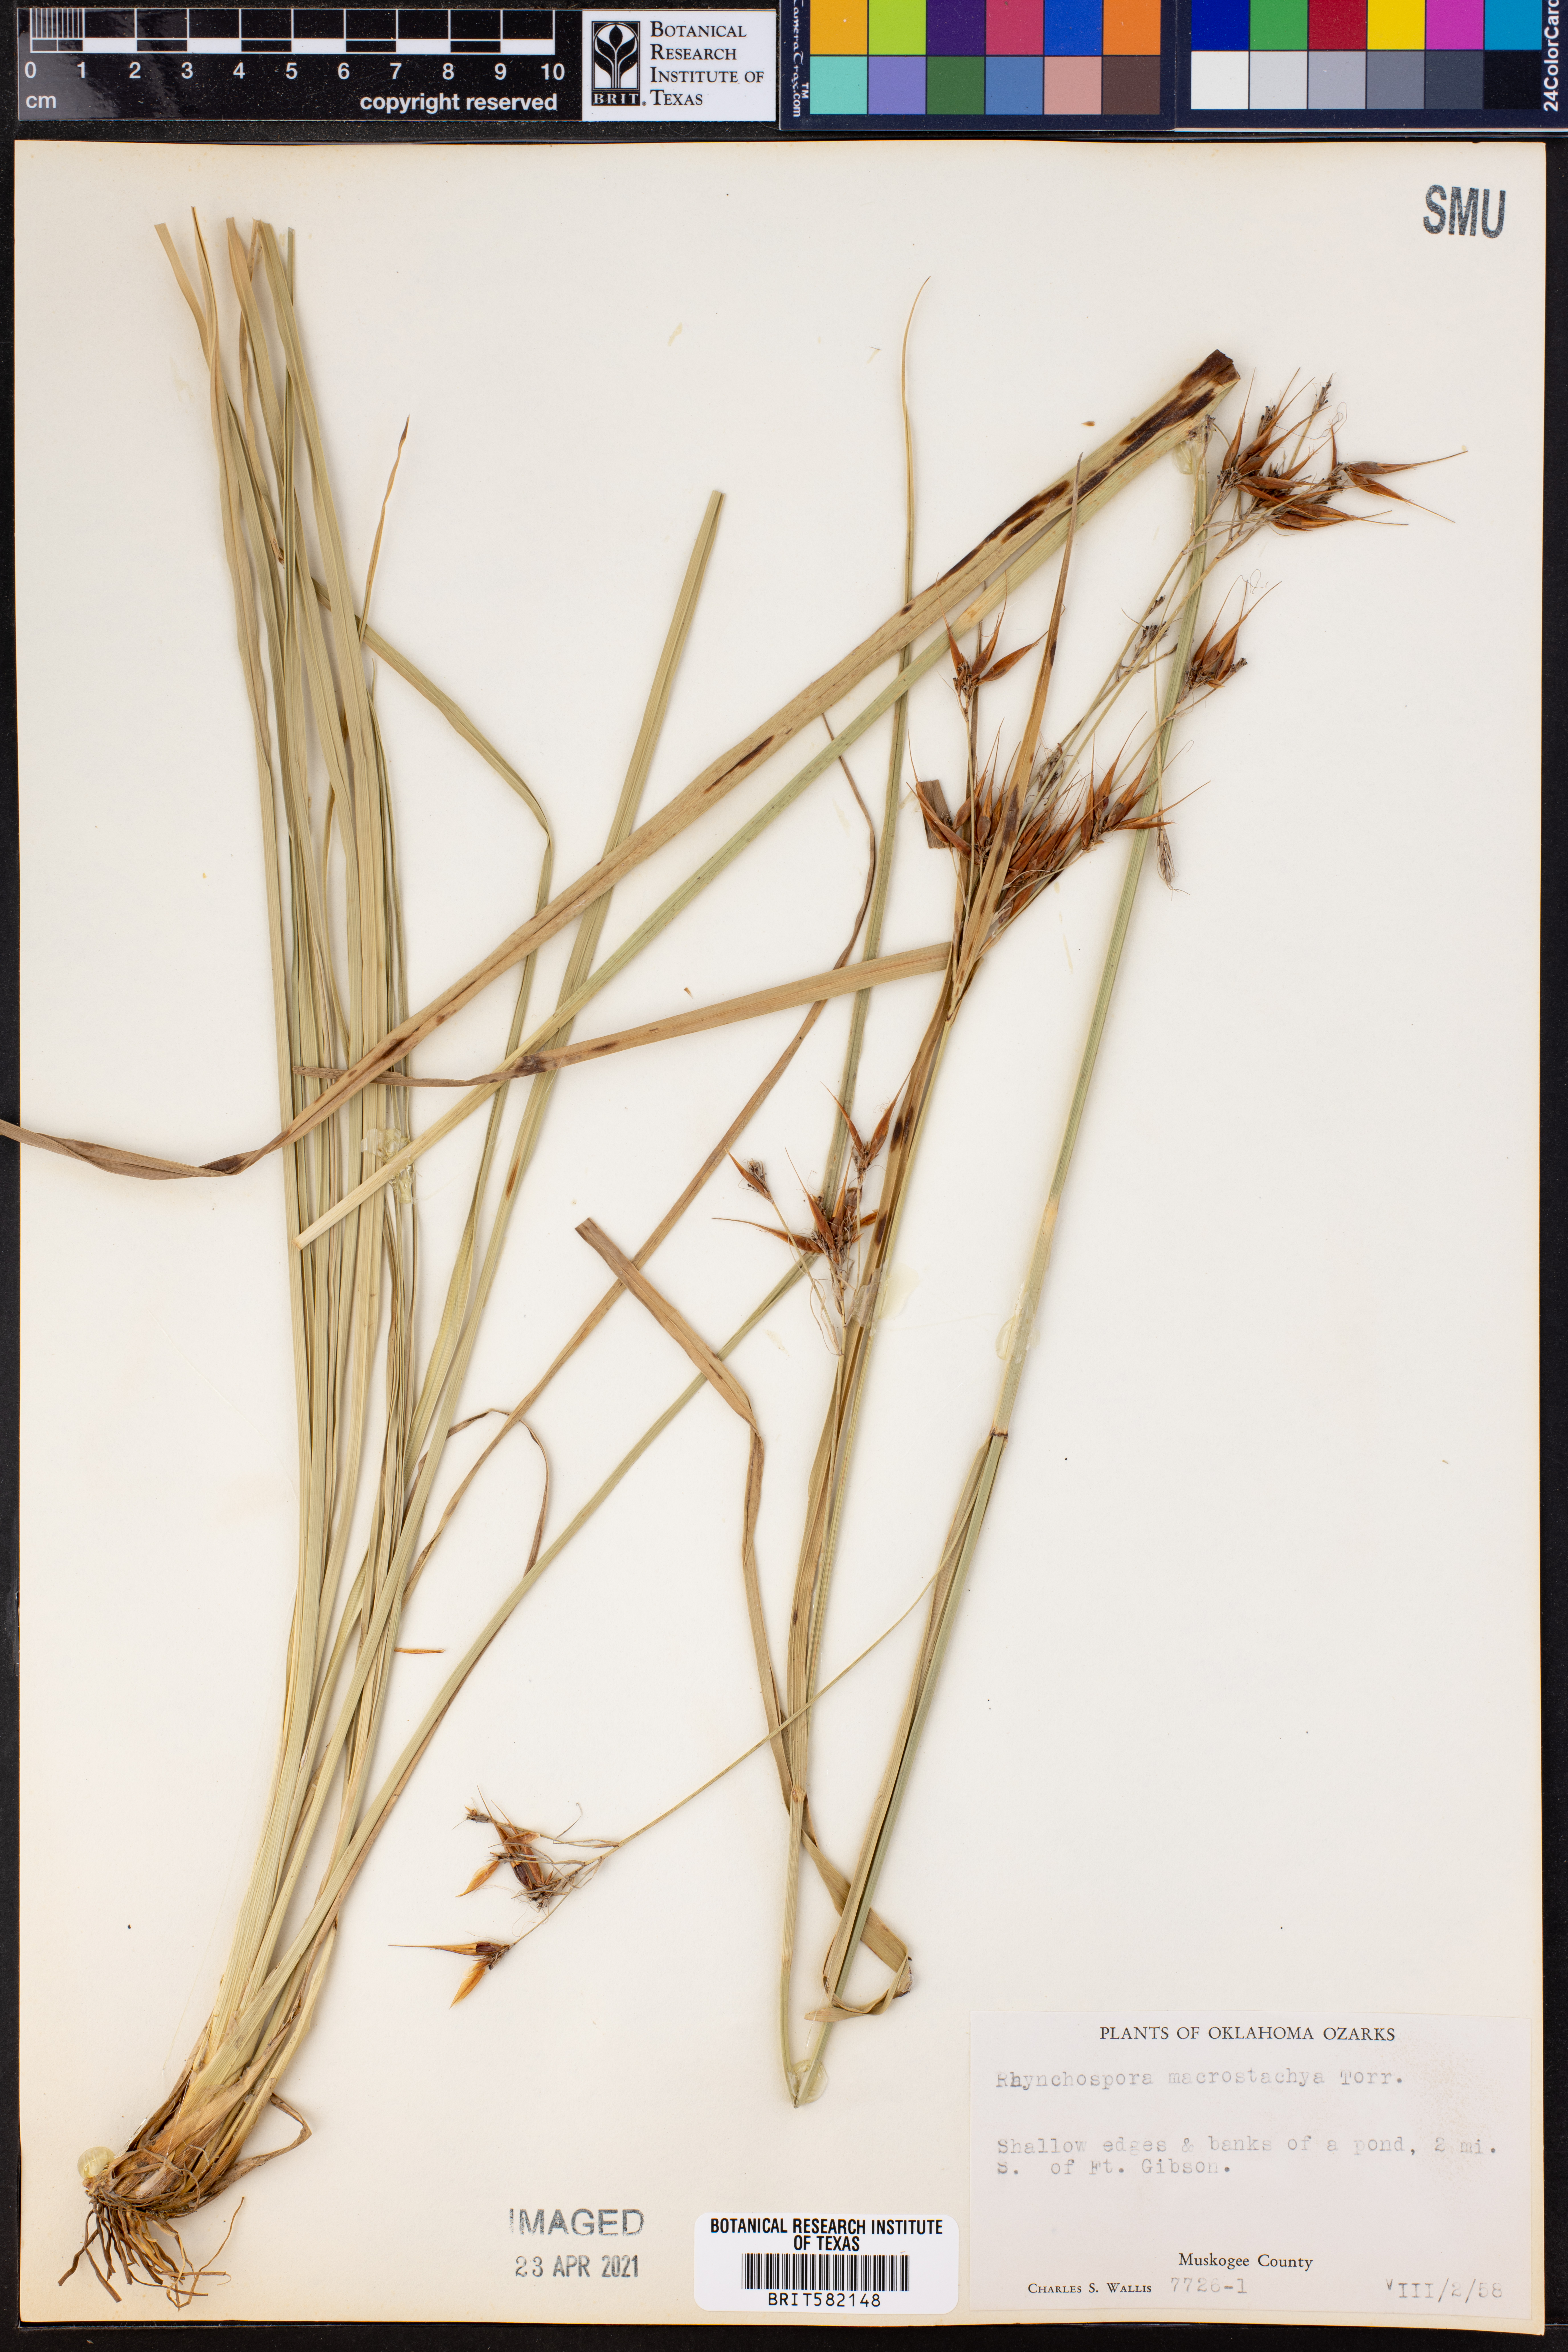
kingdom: Plantae
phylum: Tracheophyta
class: Liliopsida
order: Poales
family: Cyperaceae
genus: Rhynchospora
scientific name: Rhynchospora macrostachya
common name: Tall beakrush
